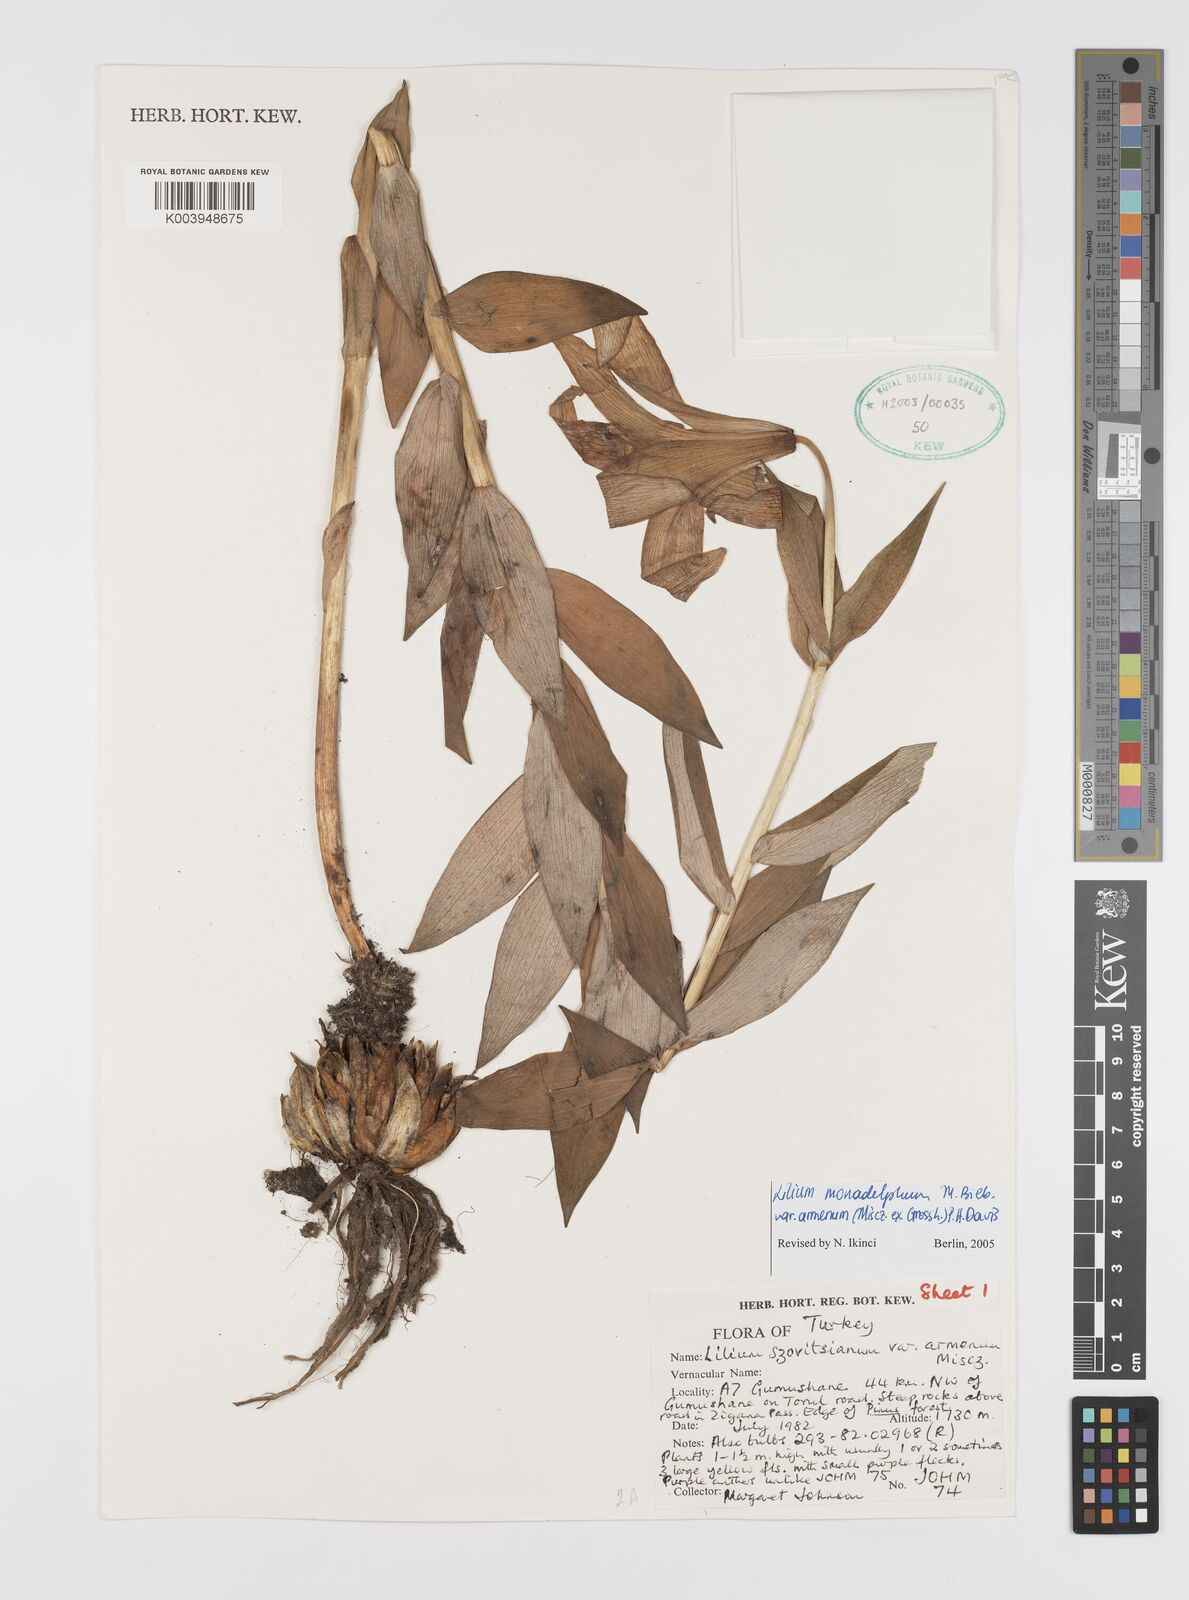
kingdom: Plantae
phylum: Tracheophyta
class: Liliopsida
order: Liliales
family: Liliaceae
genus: Lilium
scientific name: Lilium armenum
